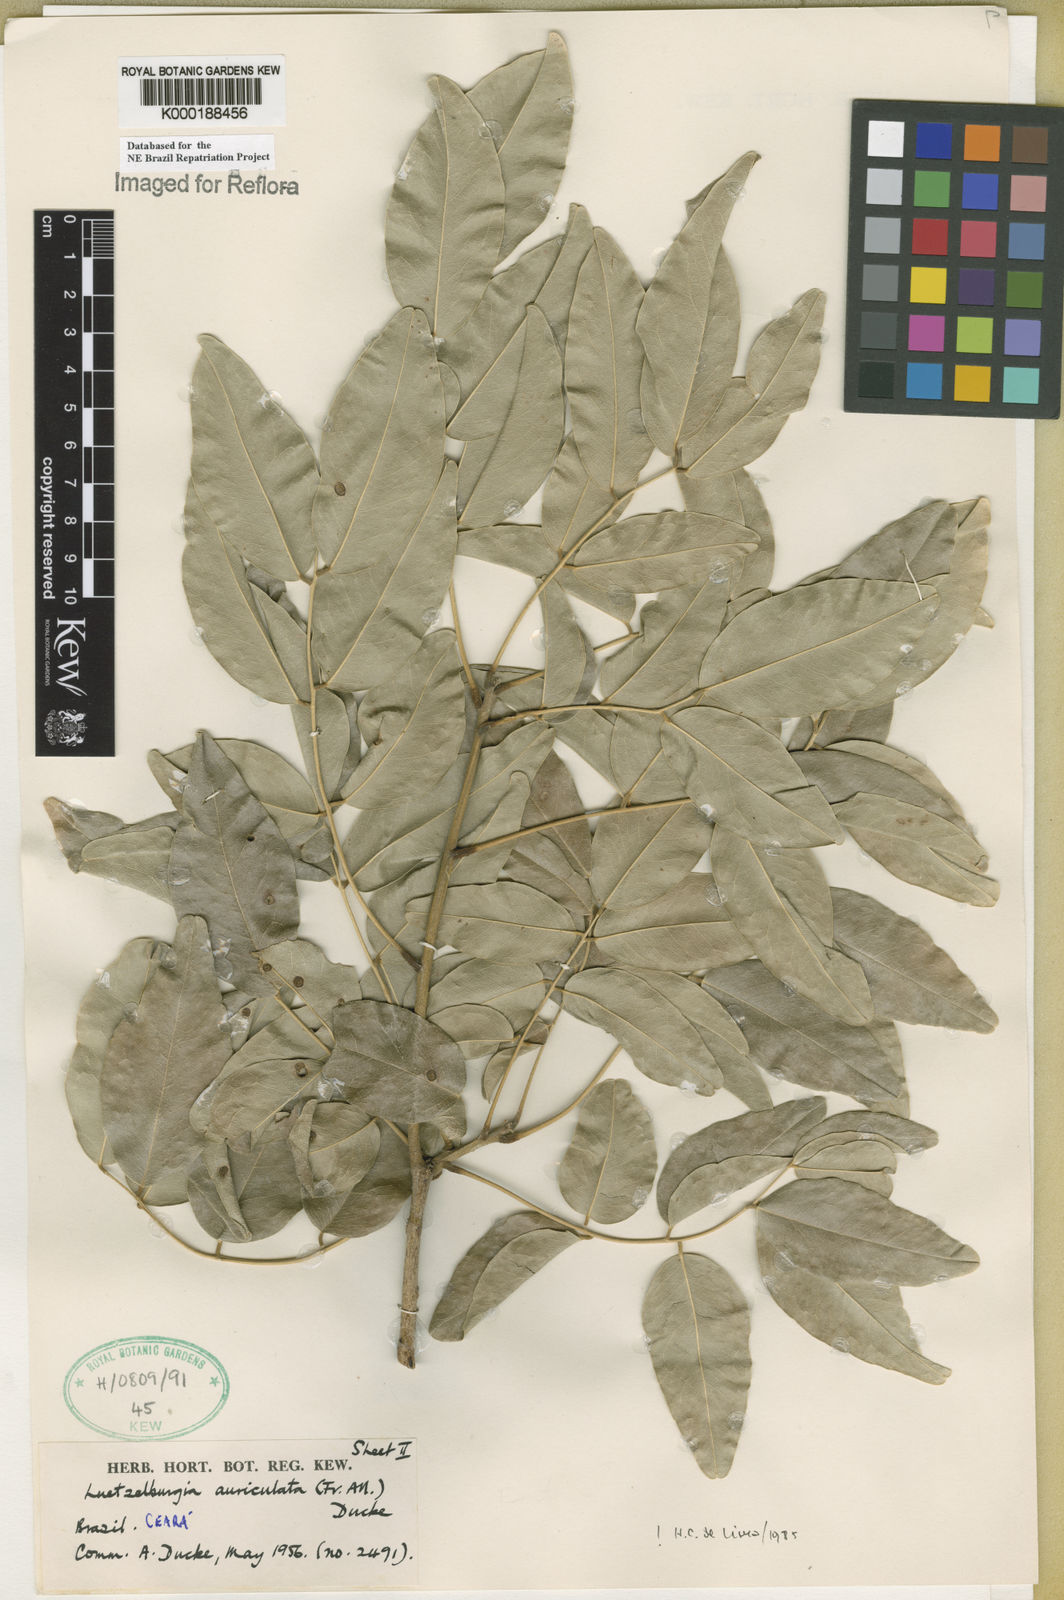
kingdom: Plantae
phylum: Tracheophyta
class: Magnoliopsida
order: Fabales
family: Fabaceae
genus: Luetzelburgia
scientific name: Luetzelburgia auriculata
